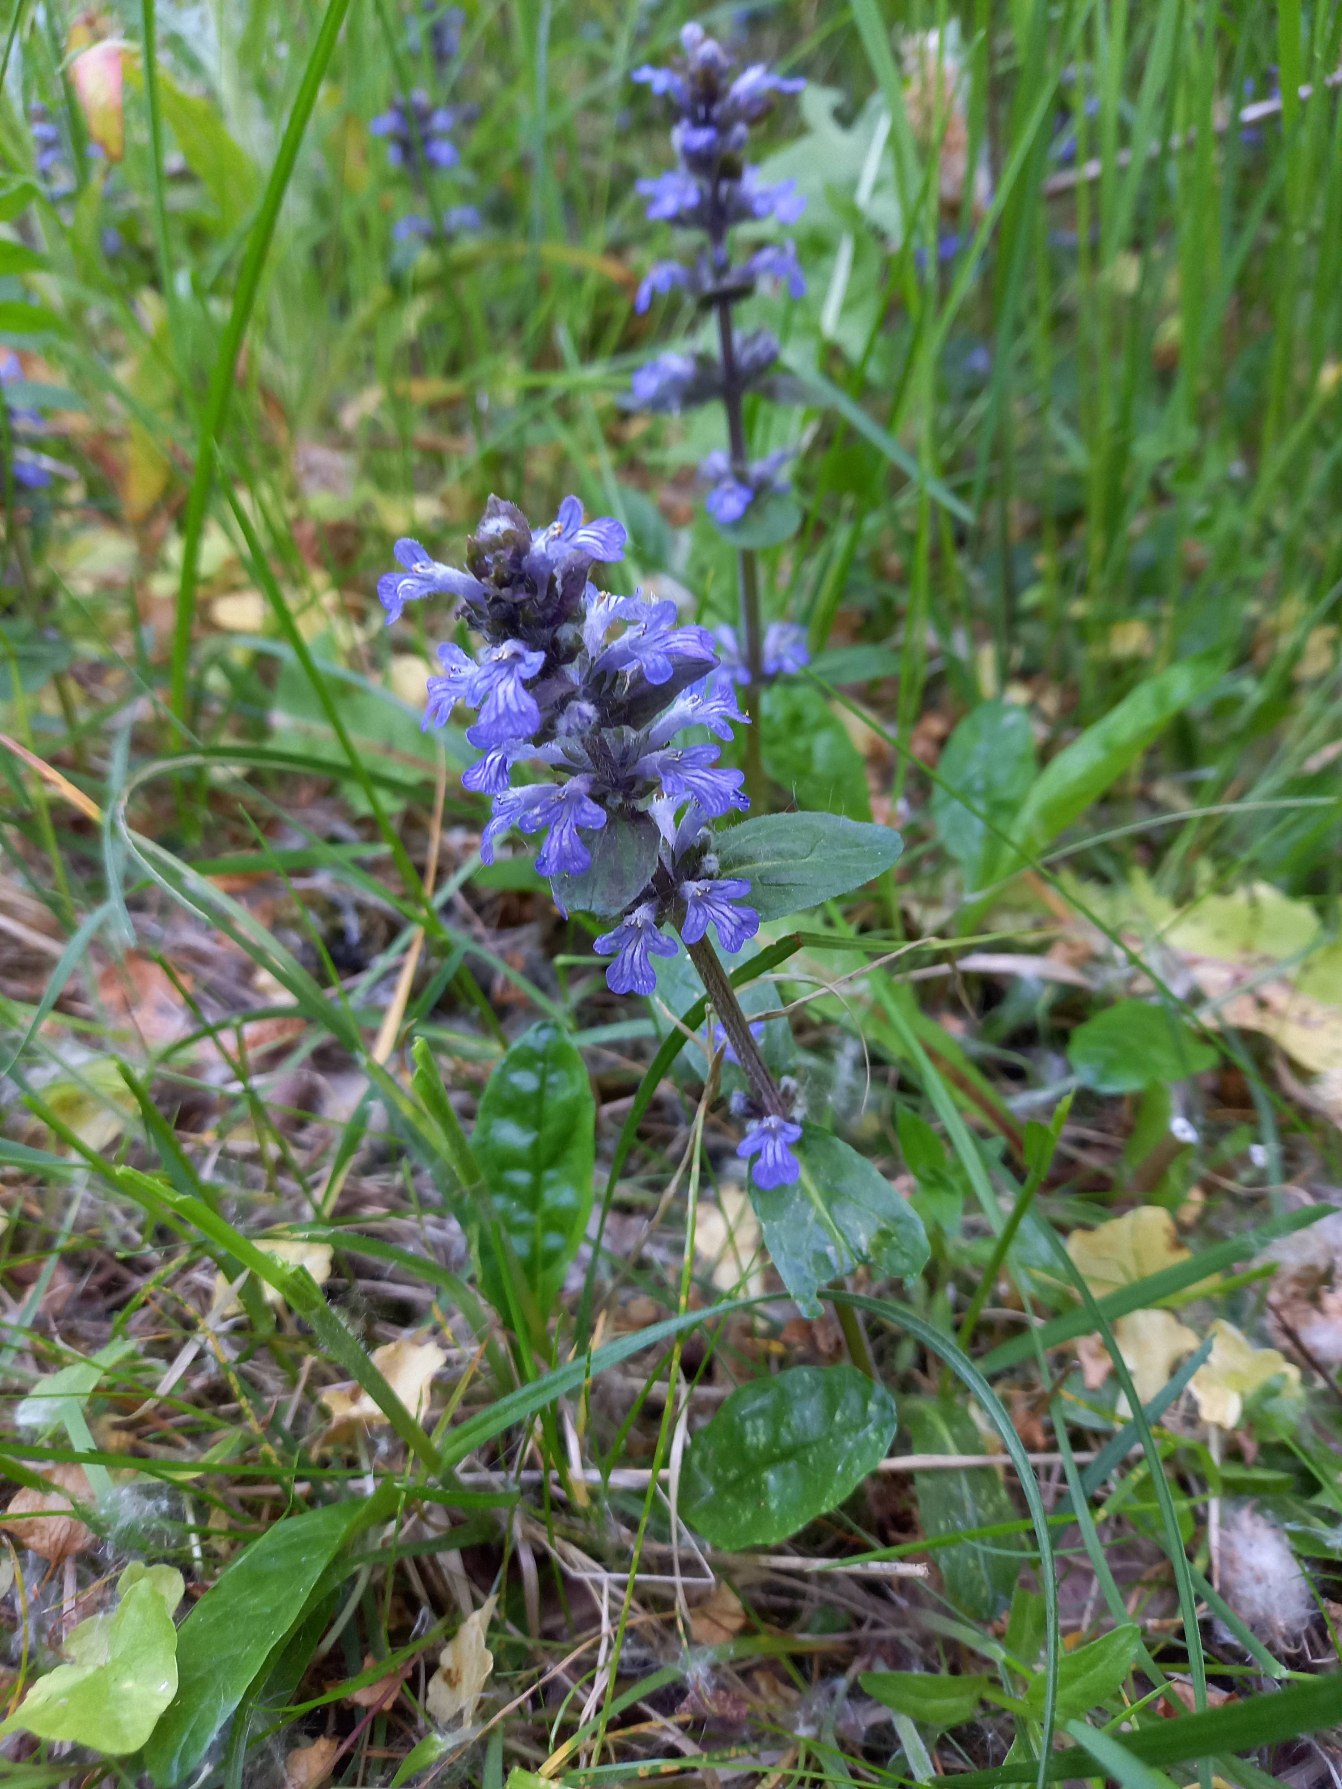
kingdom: Plantae
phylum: Tracheophyta
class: Magnoliopsida
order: Lamiales
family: Lamiaceae
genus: Ajuga
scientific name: Ajuga reptans
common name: Krybende læbeløs
